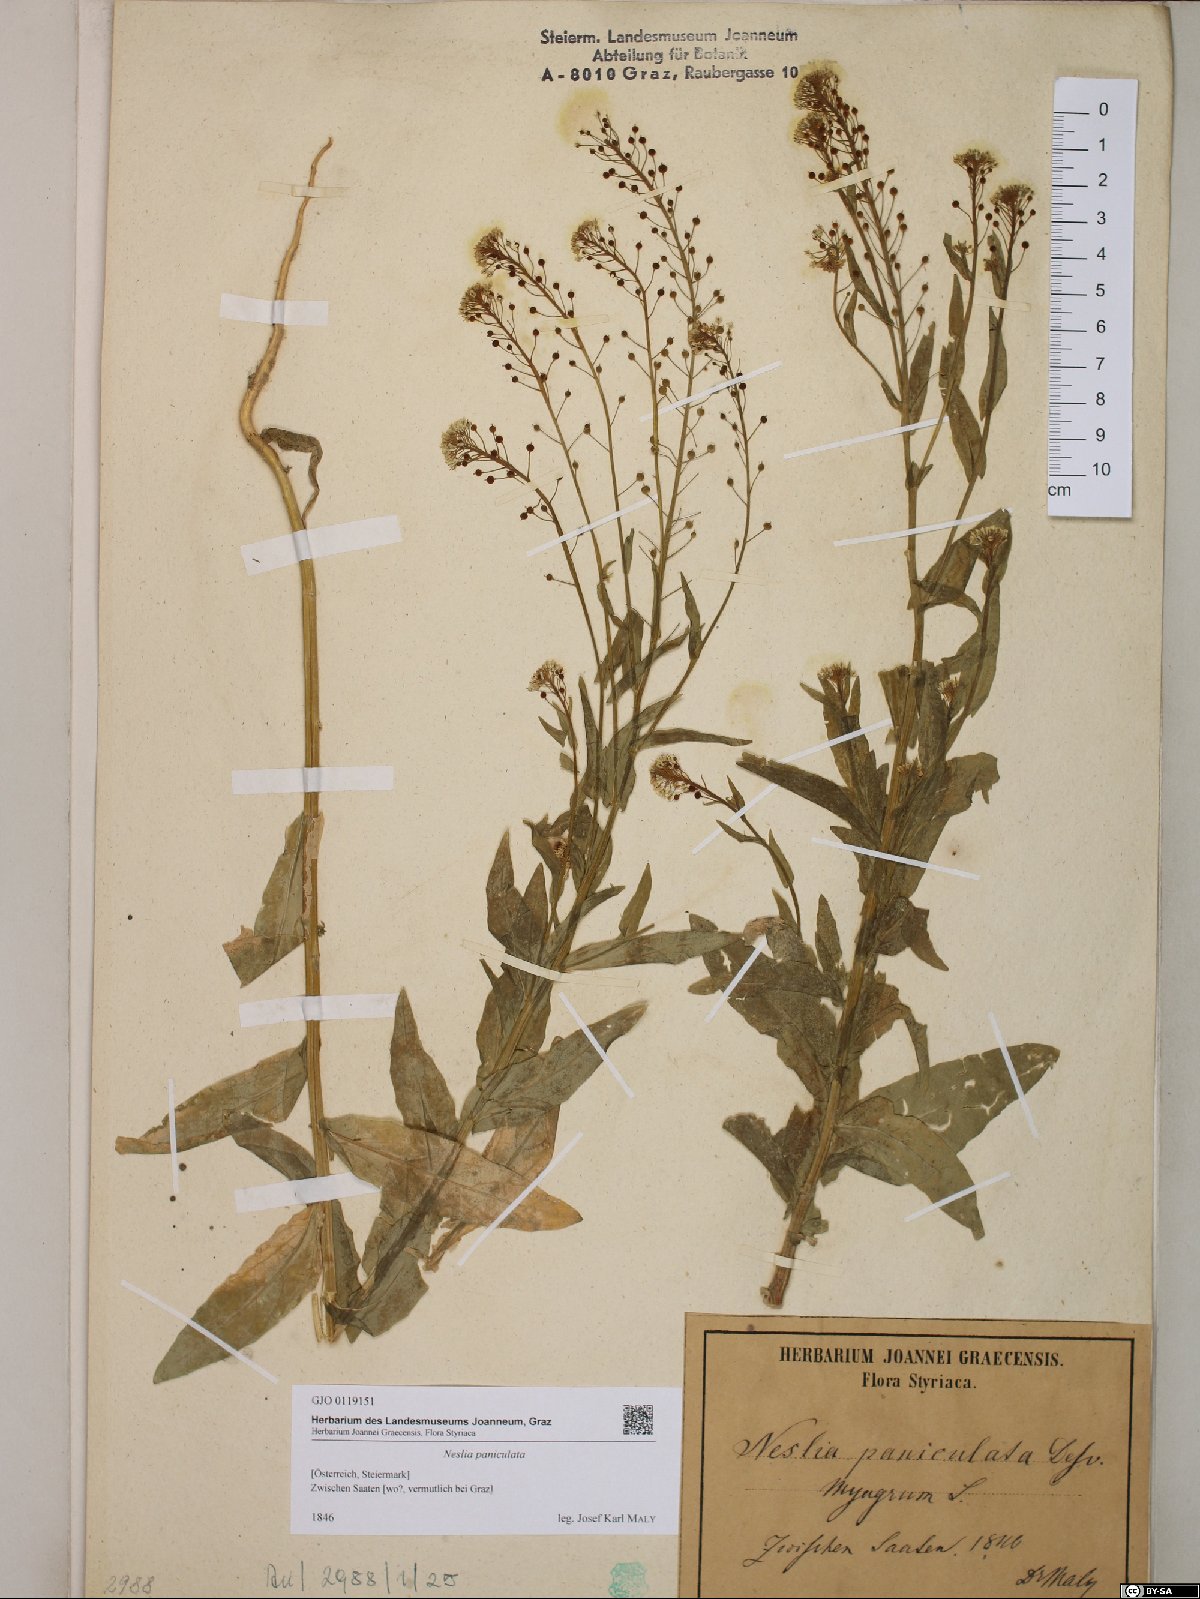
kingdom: Plantae
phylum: Tracheophyta
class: Magnoliopsida
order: Brassicales
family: Brassicaceae
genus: Neslia
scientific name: Neslia paniculata
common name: Ball mustard
